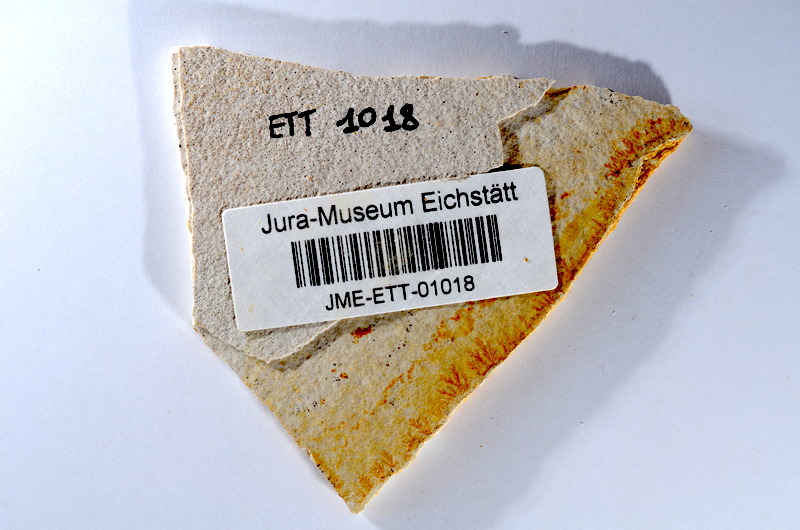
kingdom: Animalia
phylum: Chordata
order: Salmoniformes
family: Orthogonikleithridae
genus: Orthogonikleithrus
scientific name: Orthogonikleithrus hoelli
